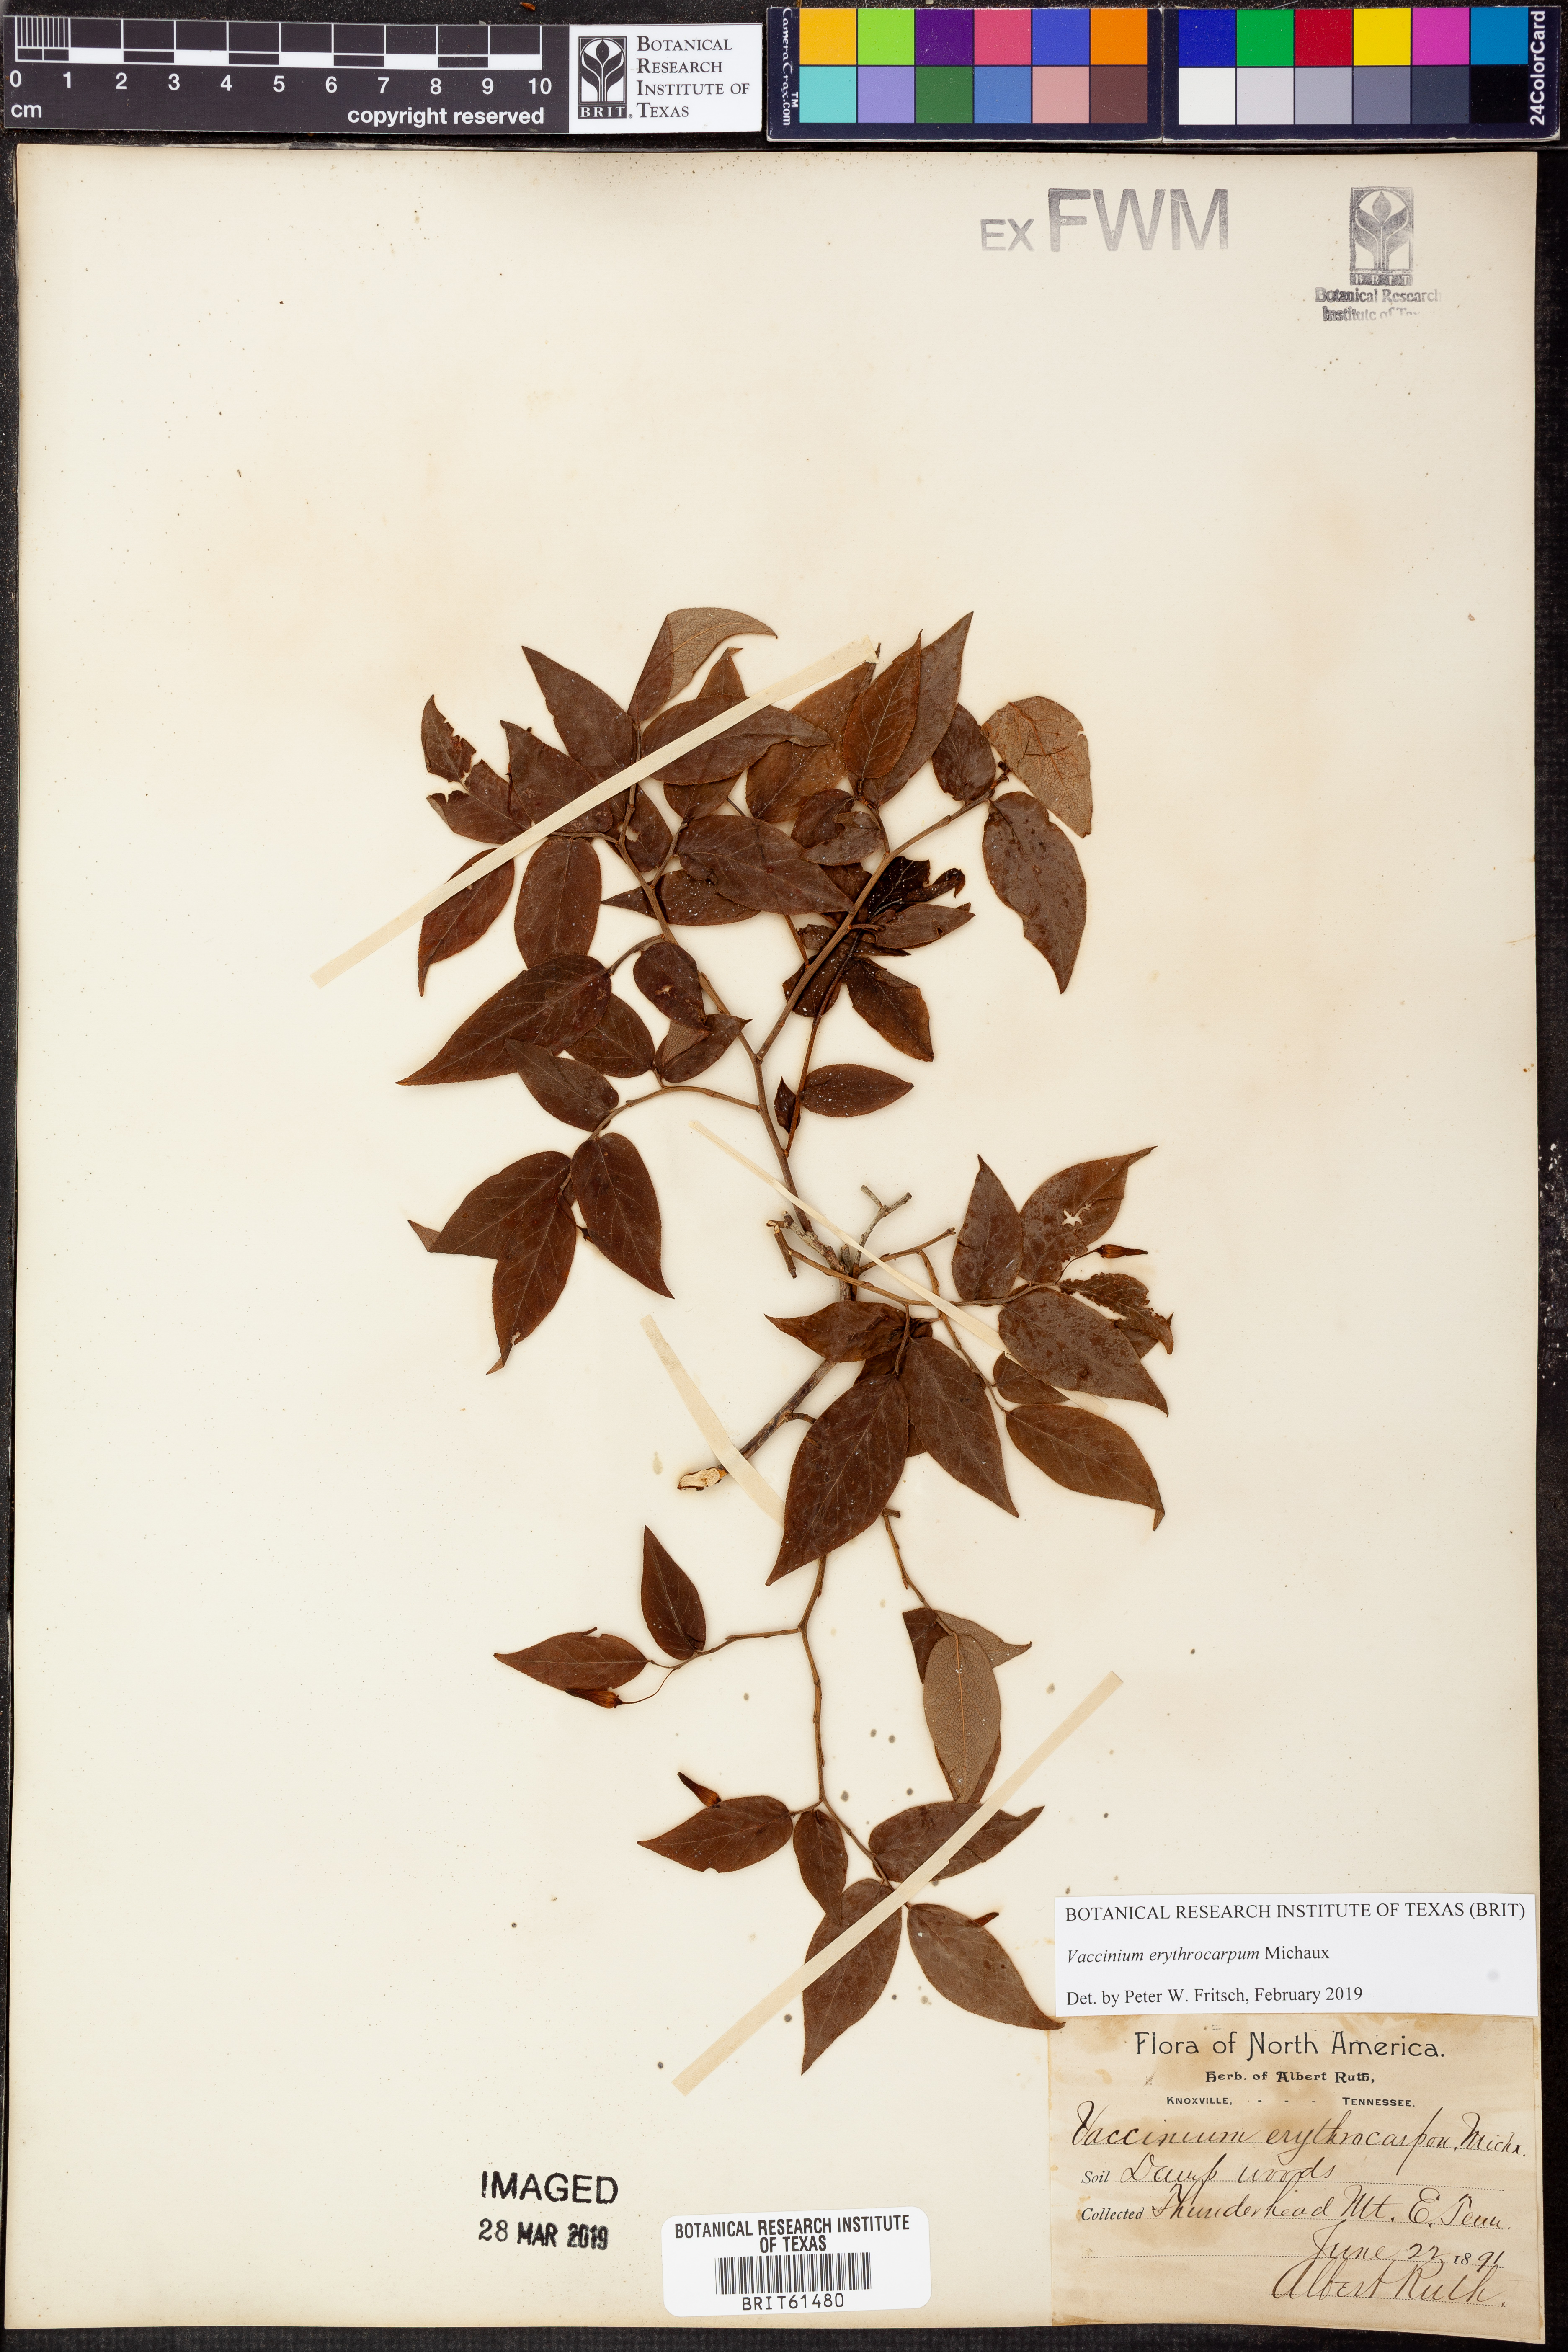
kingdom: Plantae
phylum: Tracheophyta
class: Magnoliopsida
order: Ericales
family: Ericaceae
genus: Vaccinium
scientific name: Vaccinium erythrocarpum
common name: Bearberry
